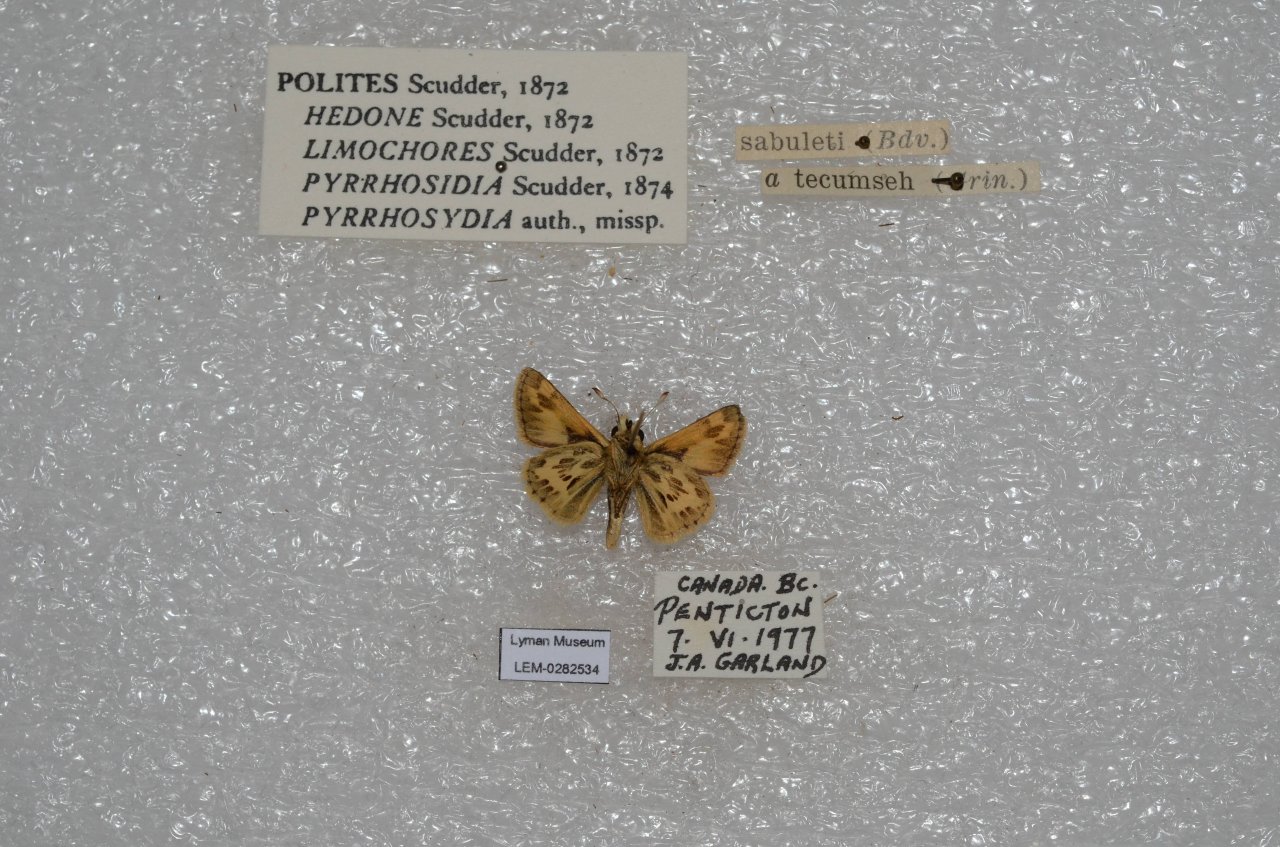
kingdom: Animalia
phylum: Arthropoda
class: Insecta
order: Lepidoptera
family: Hesperiidae
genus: Polites
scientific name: Polites sabuleti
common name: Sandhill Skipper
